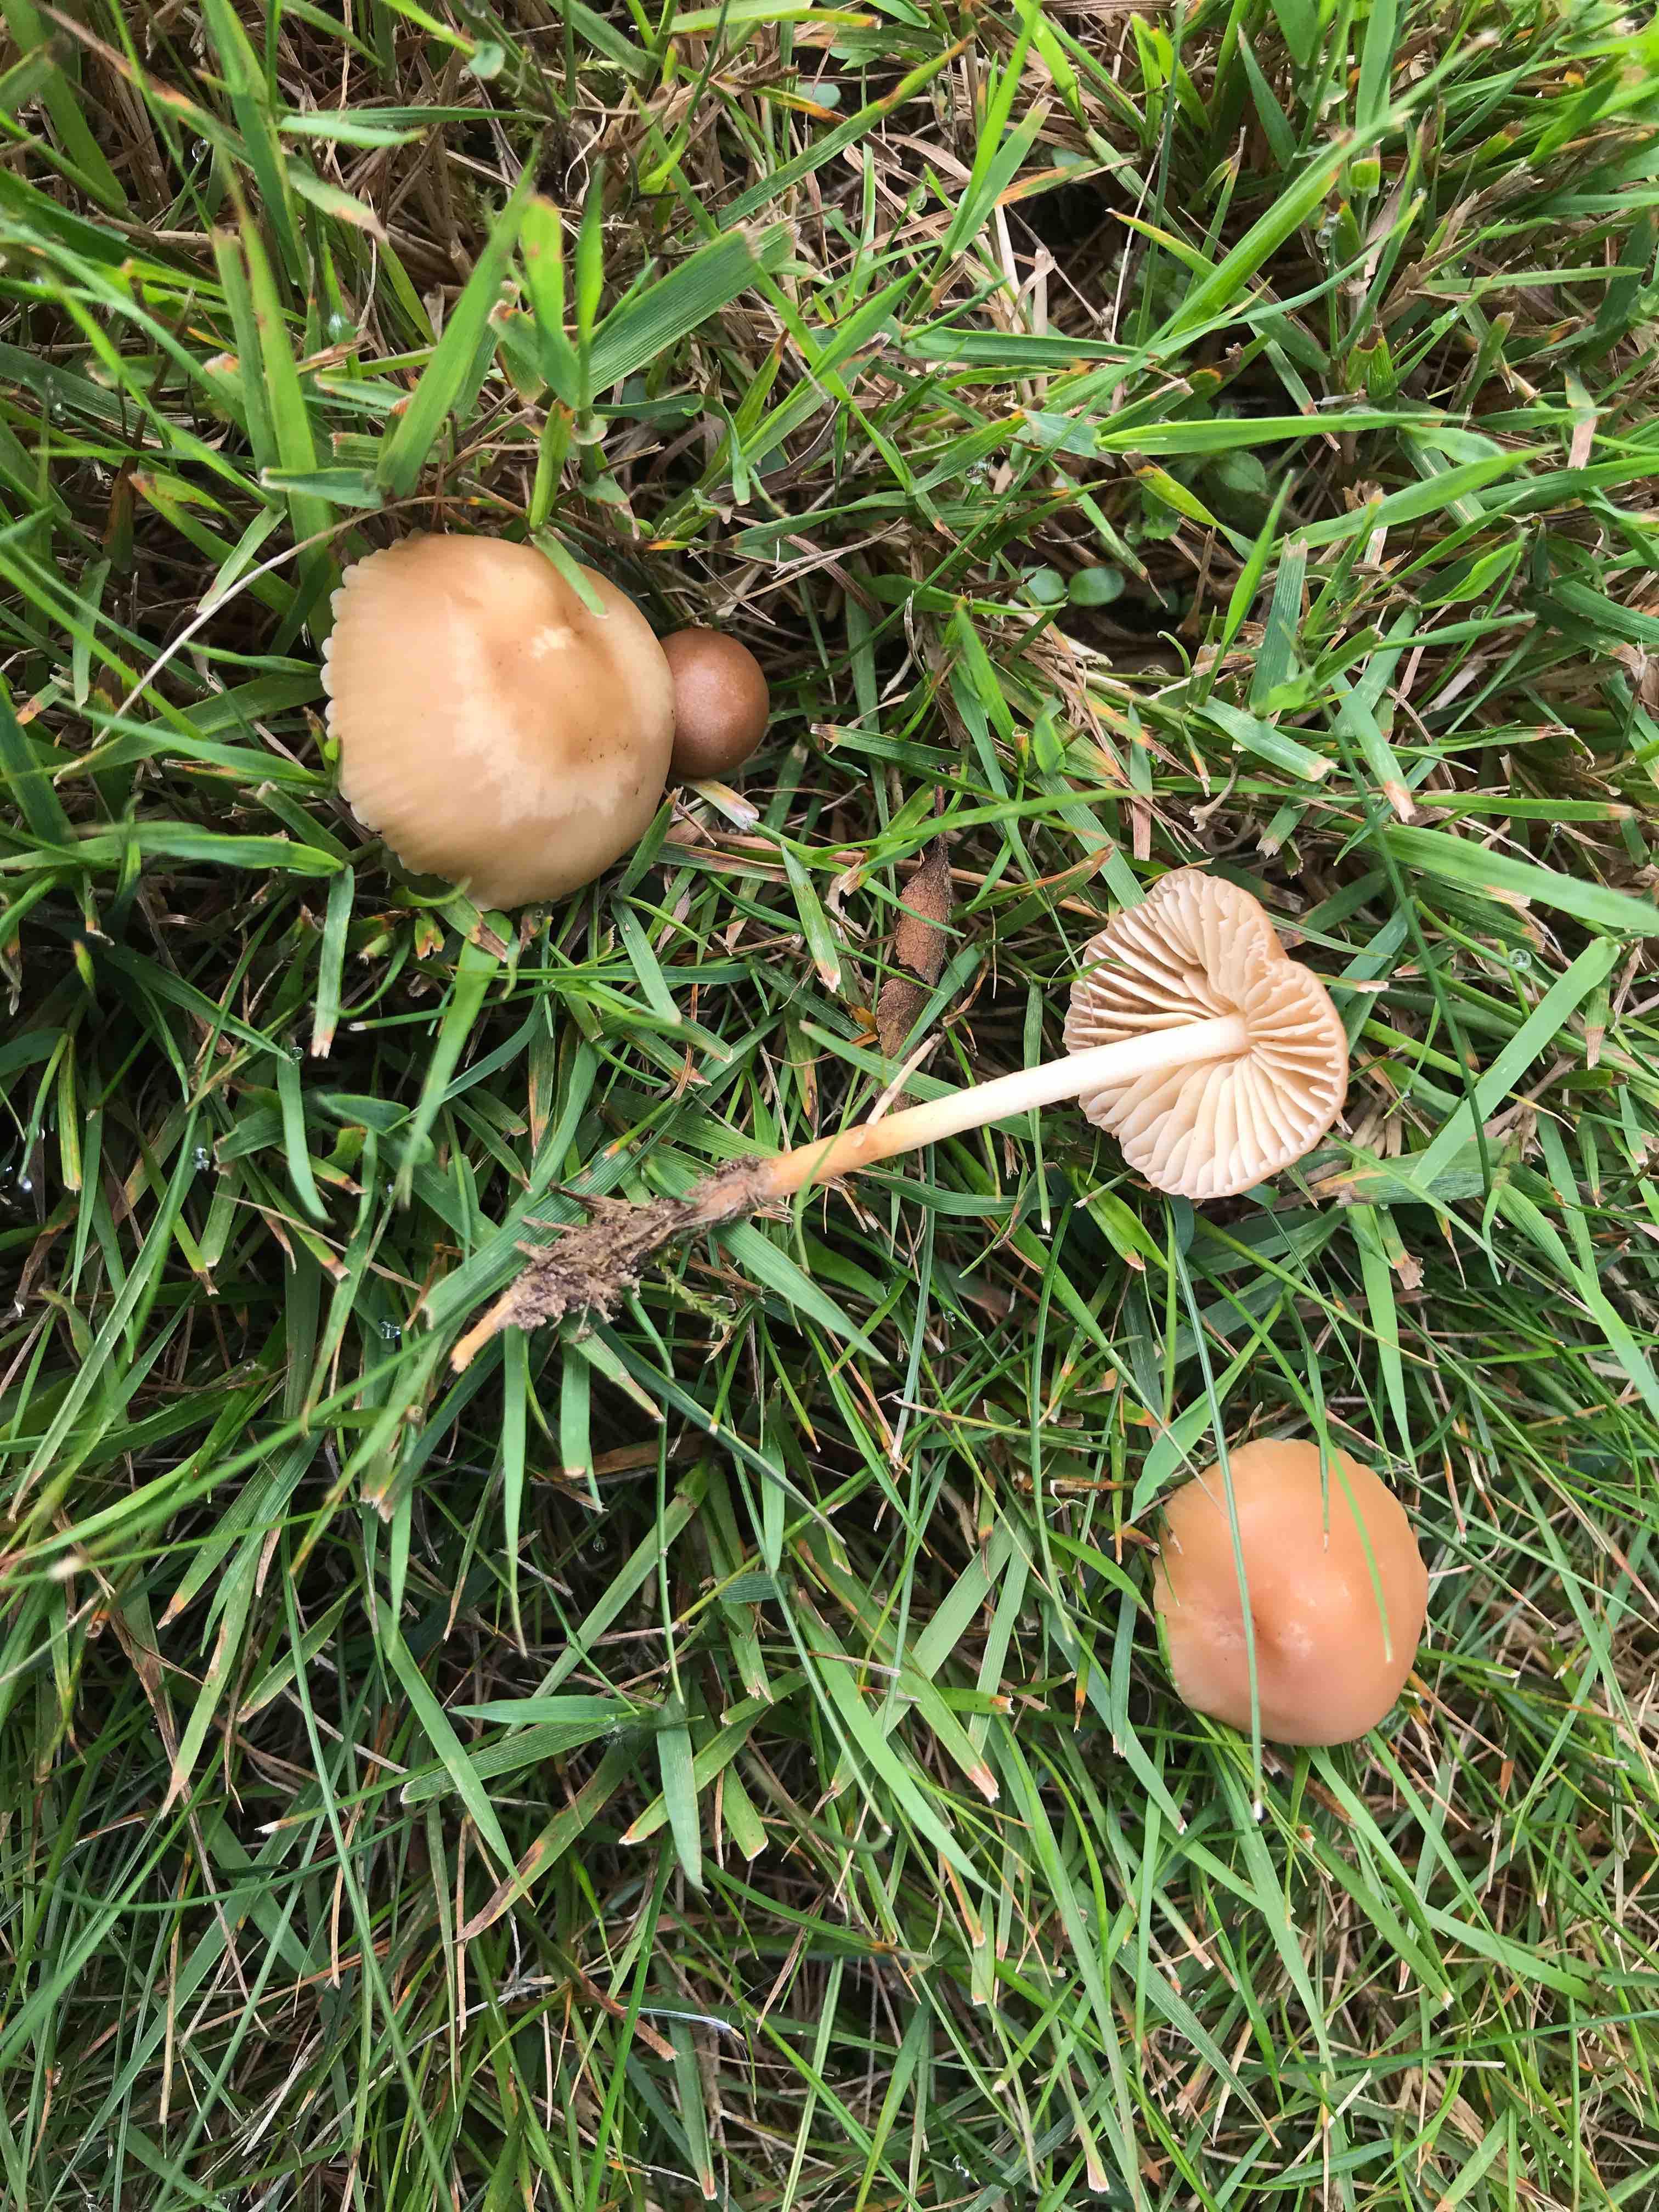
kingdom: Fungi
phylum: Basidiomycota
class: Agaricomycetes
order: Agaricales
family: Marasmiaceae
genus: Marasmius
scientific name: Marasmius oreades
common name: elledans-bruskhat
